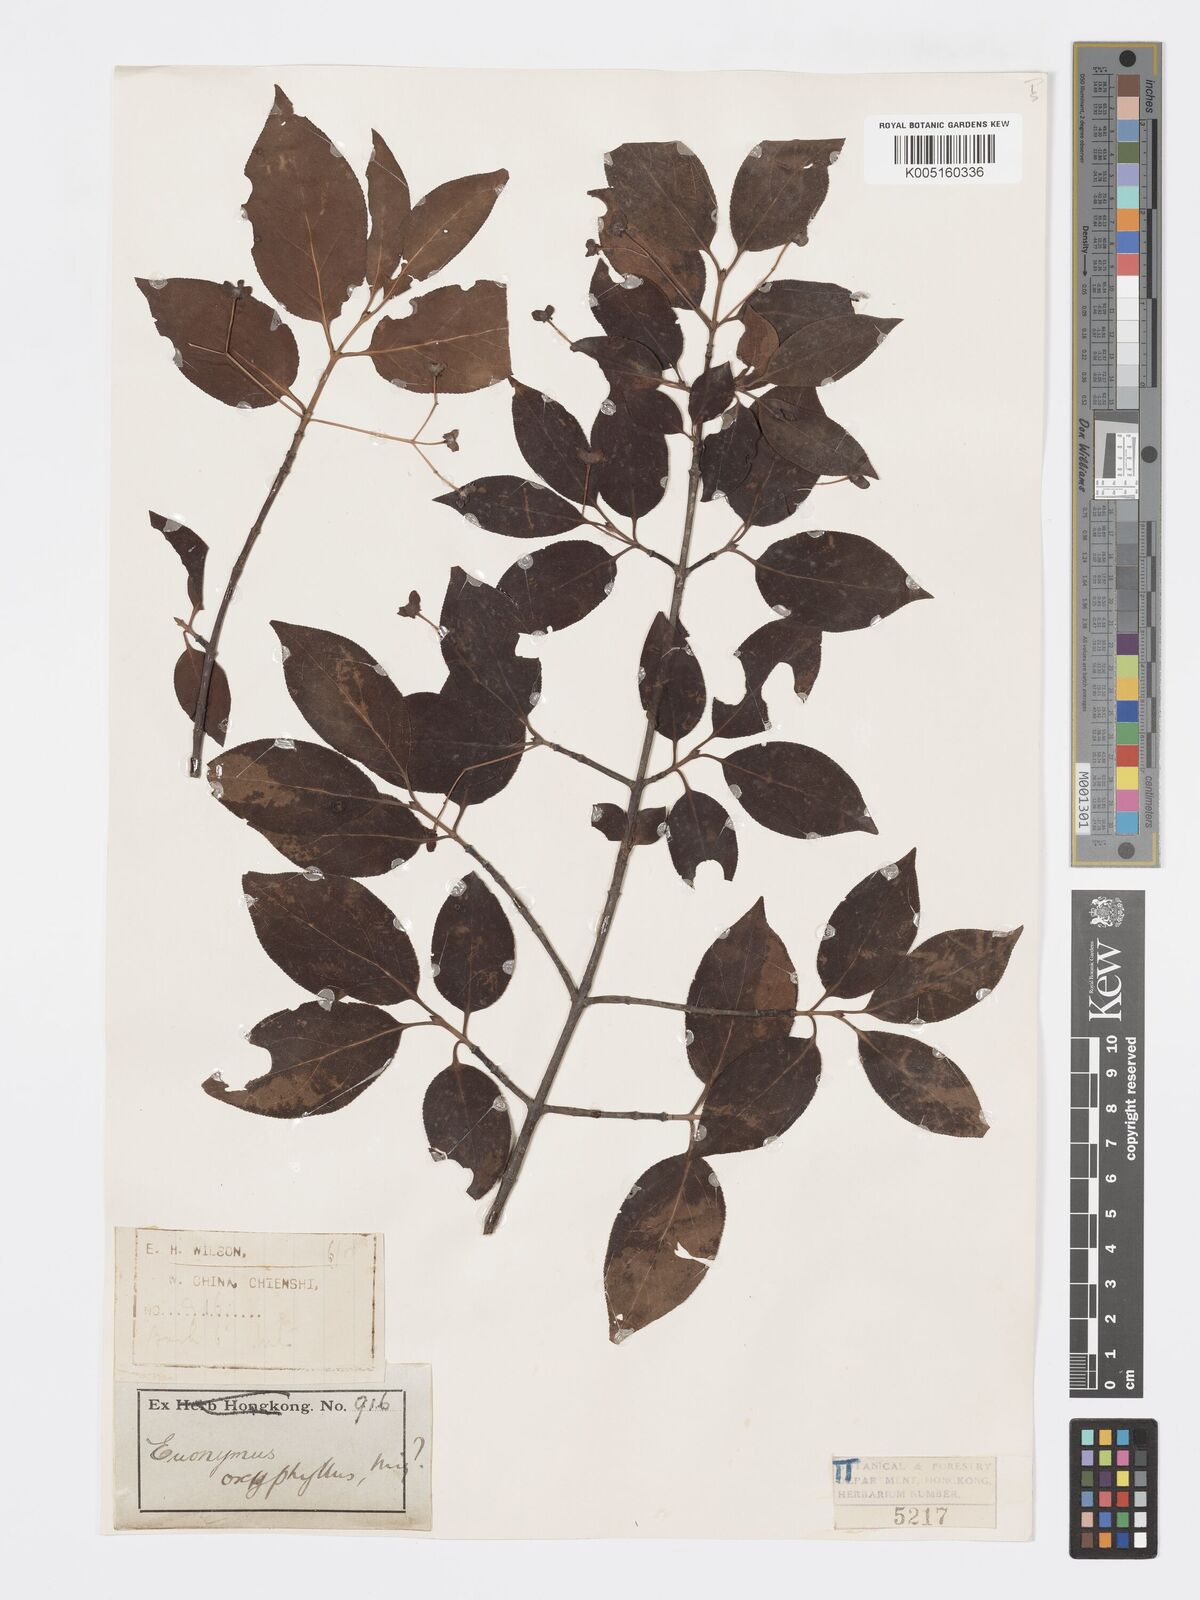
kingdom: Plantae
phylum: Tracheophyta
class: Magnoliopsida
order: Celastrales
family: Celastraceae
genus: Euonymus
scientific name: Euonymus
